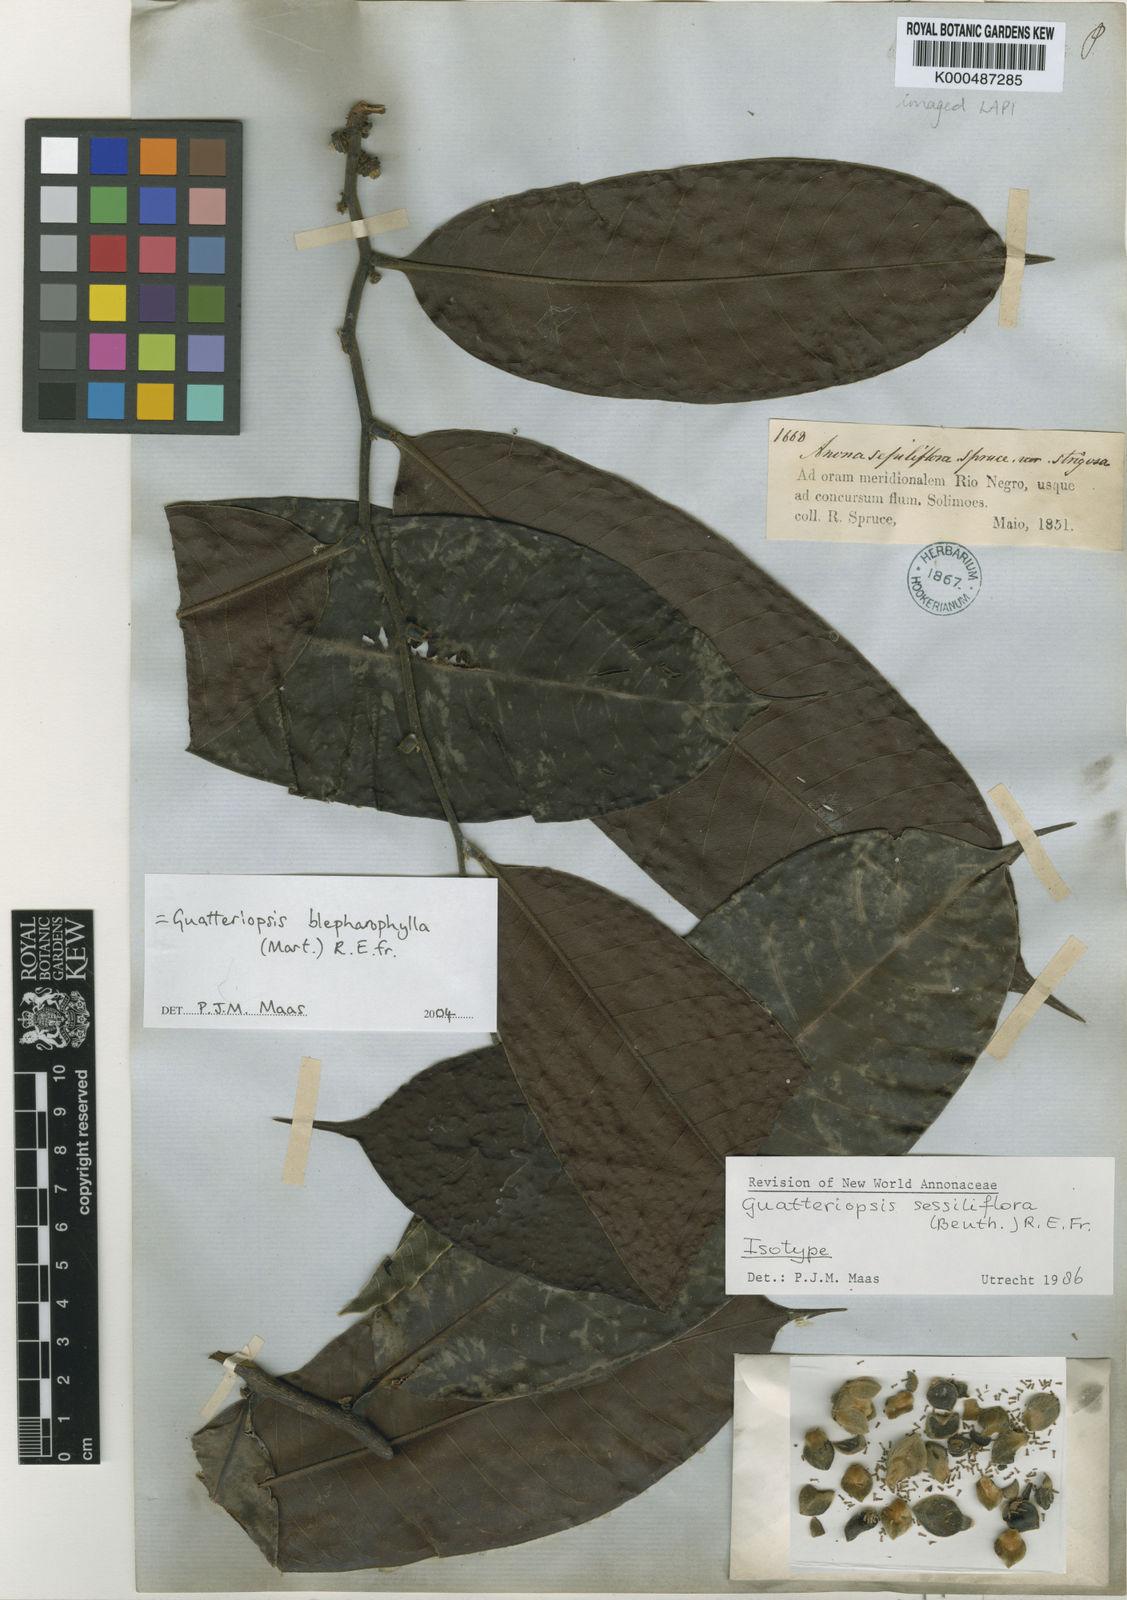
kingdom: Plantae
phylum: Tracheophyta
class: Magnoliopsida
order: Magnoliales
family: Annonaceae
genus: Guatteria
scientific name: Guatteria blepharophylla
